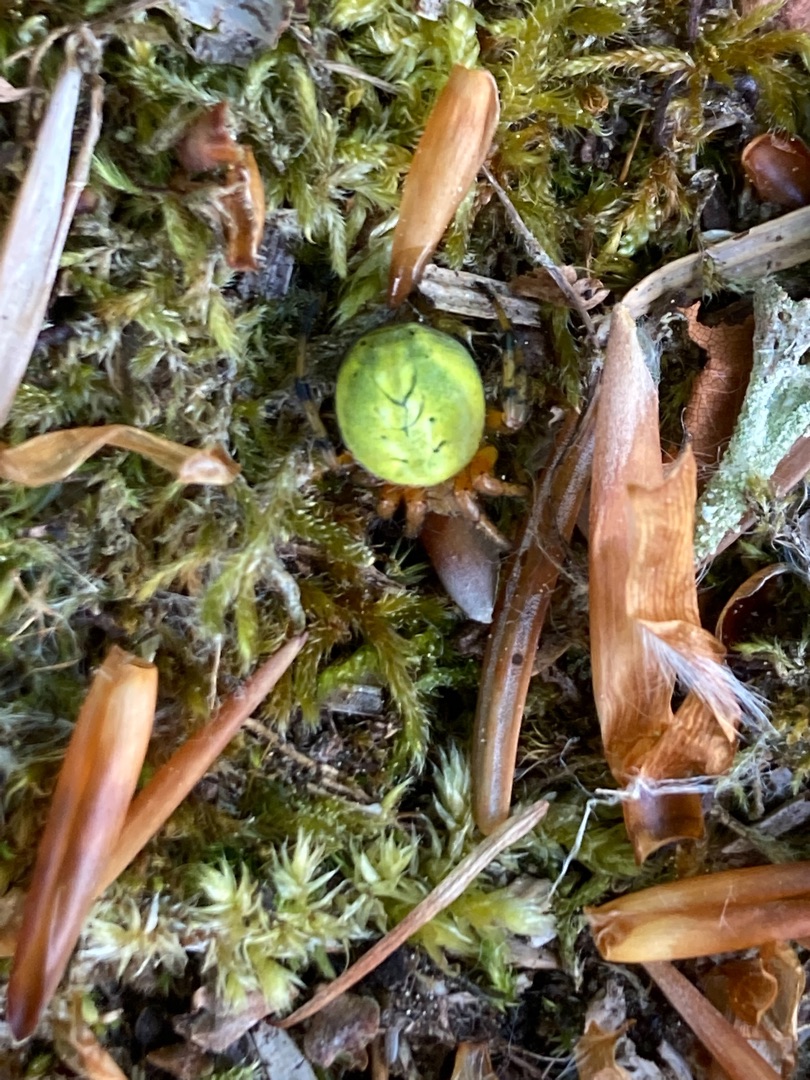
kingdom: Animalia
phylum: Arthropoda
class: Arachnida
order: Araneae
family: Araneidae
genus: Araniella
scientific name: Araniella alpica
